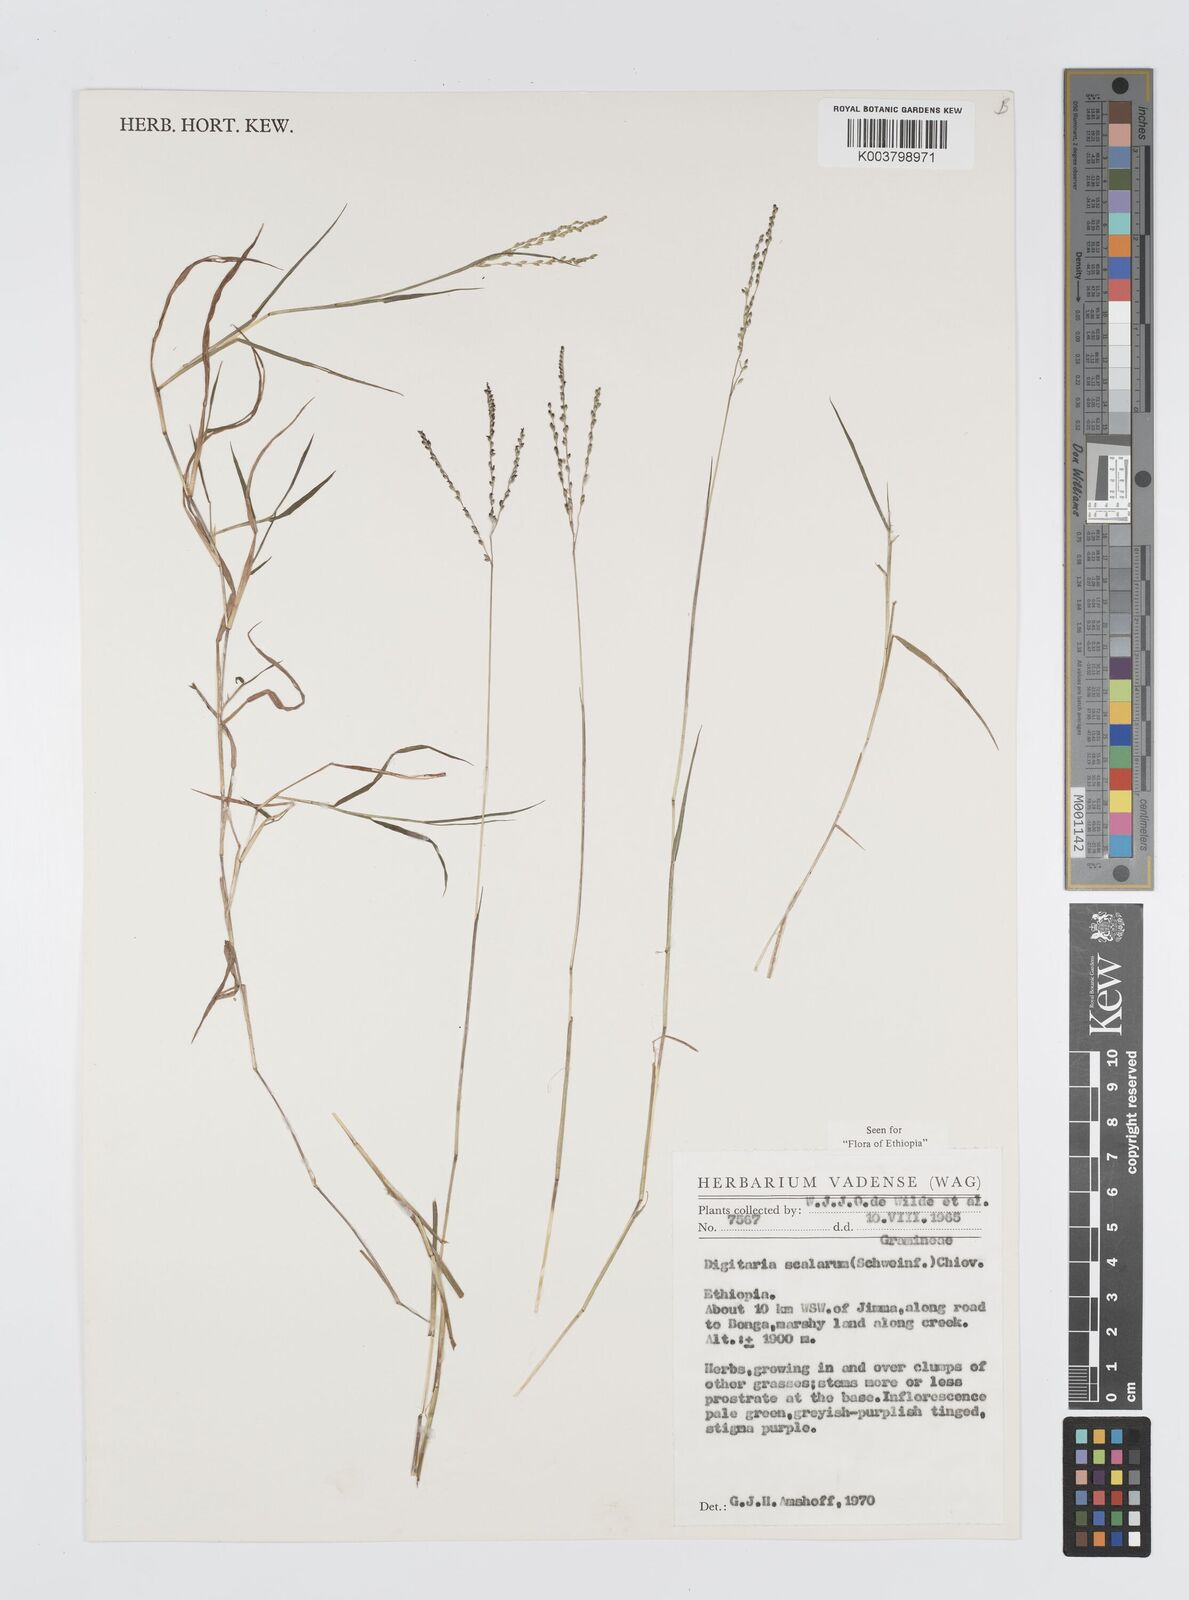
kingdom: Plantae
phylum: Tracheophyta
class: Liliopsida
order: Poales
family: Poaceae
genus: Digitaria
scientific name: Digitaria abyssinica
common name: African couchgrass
